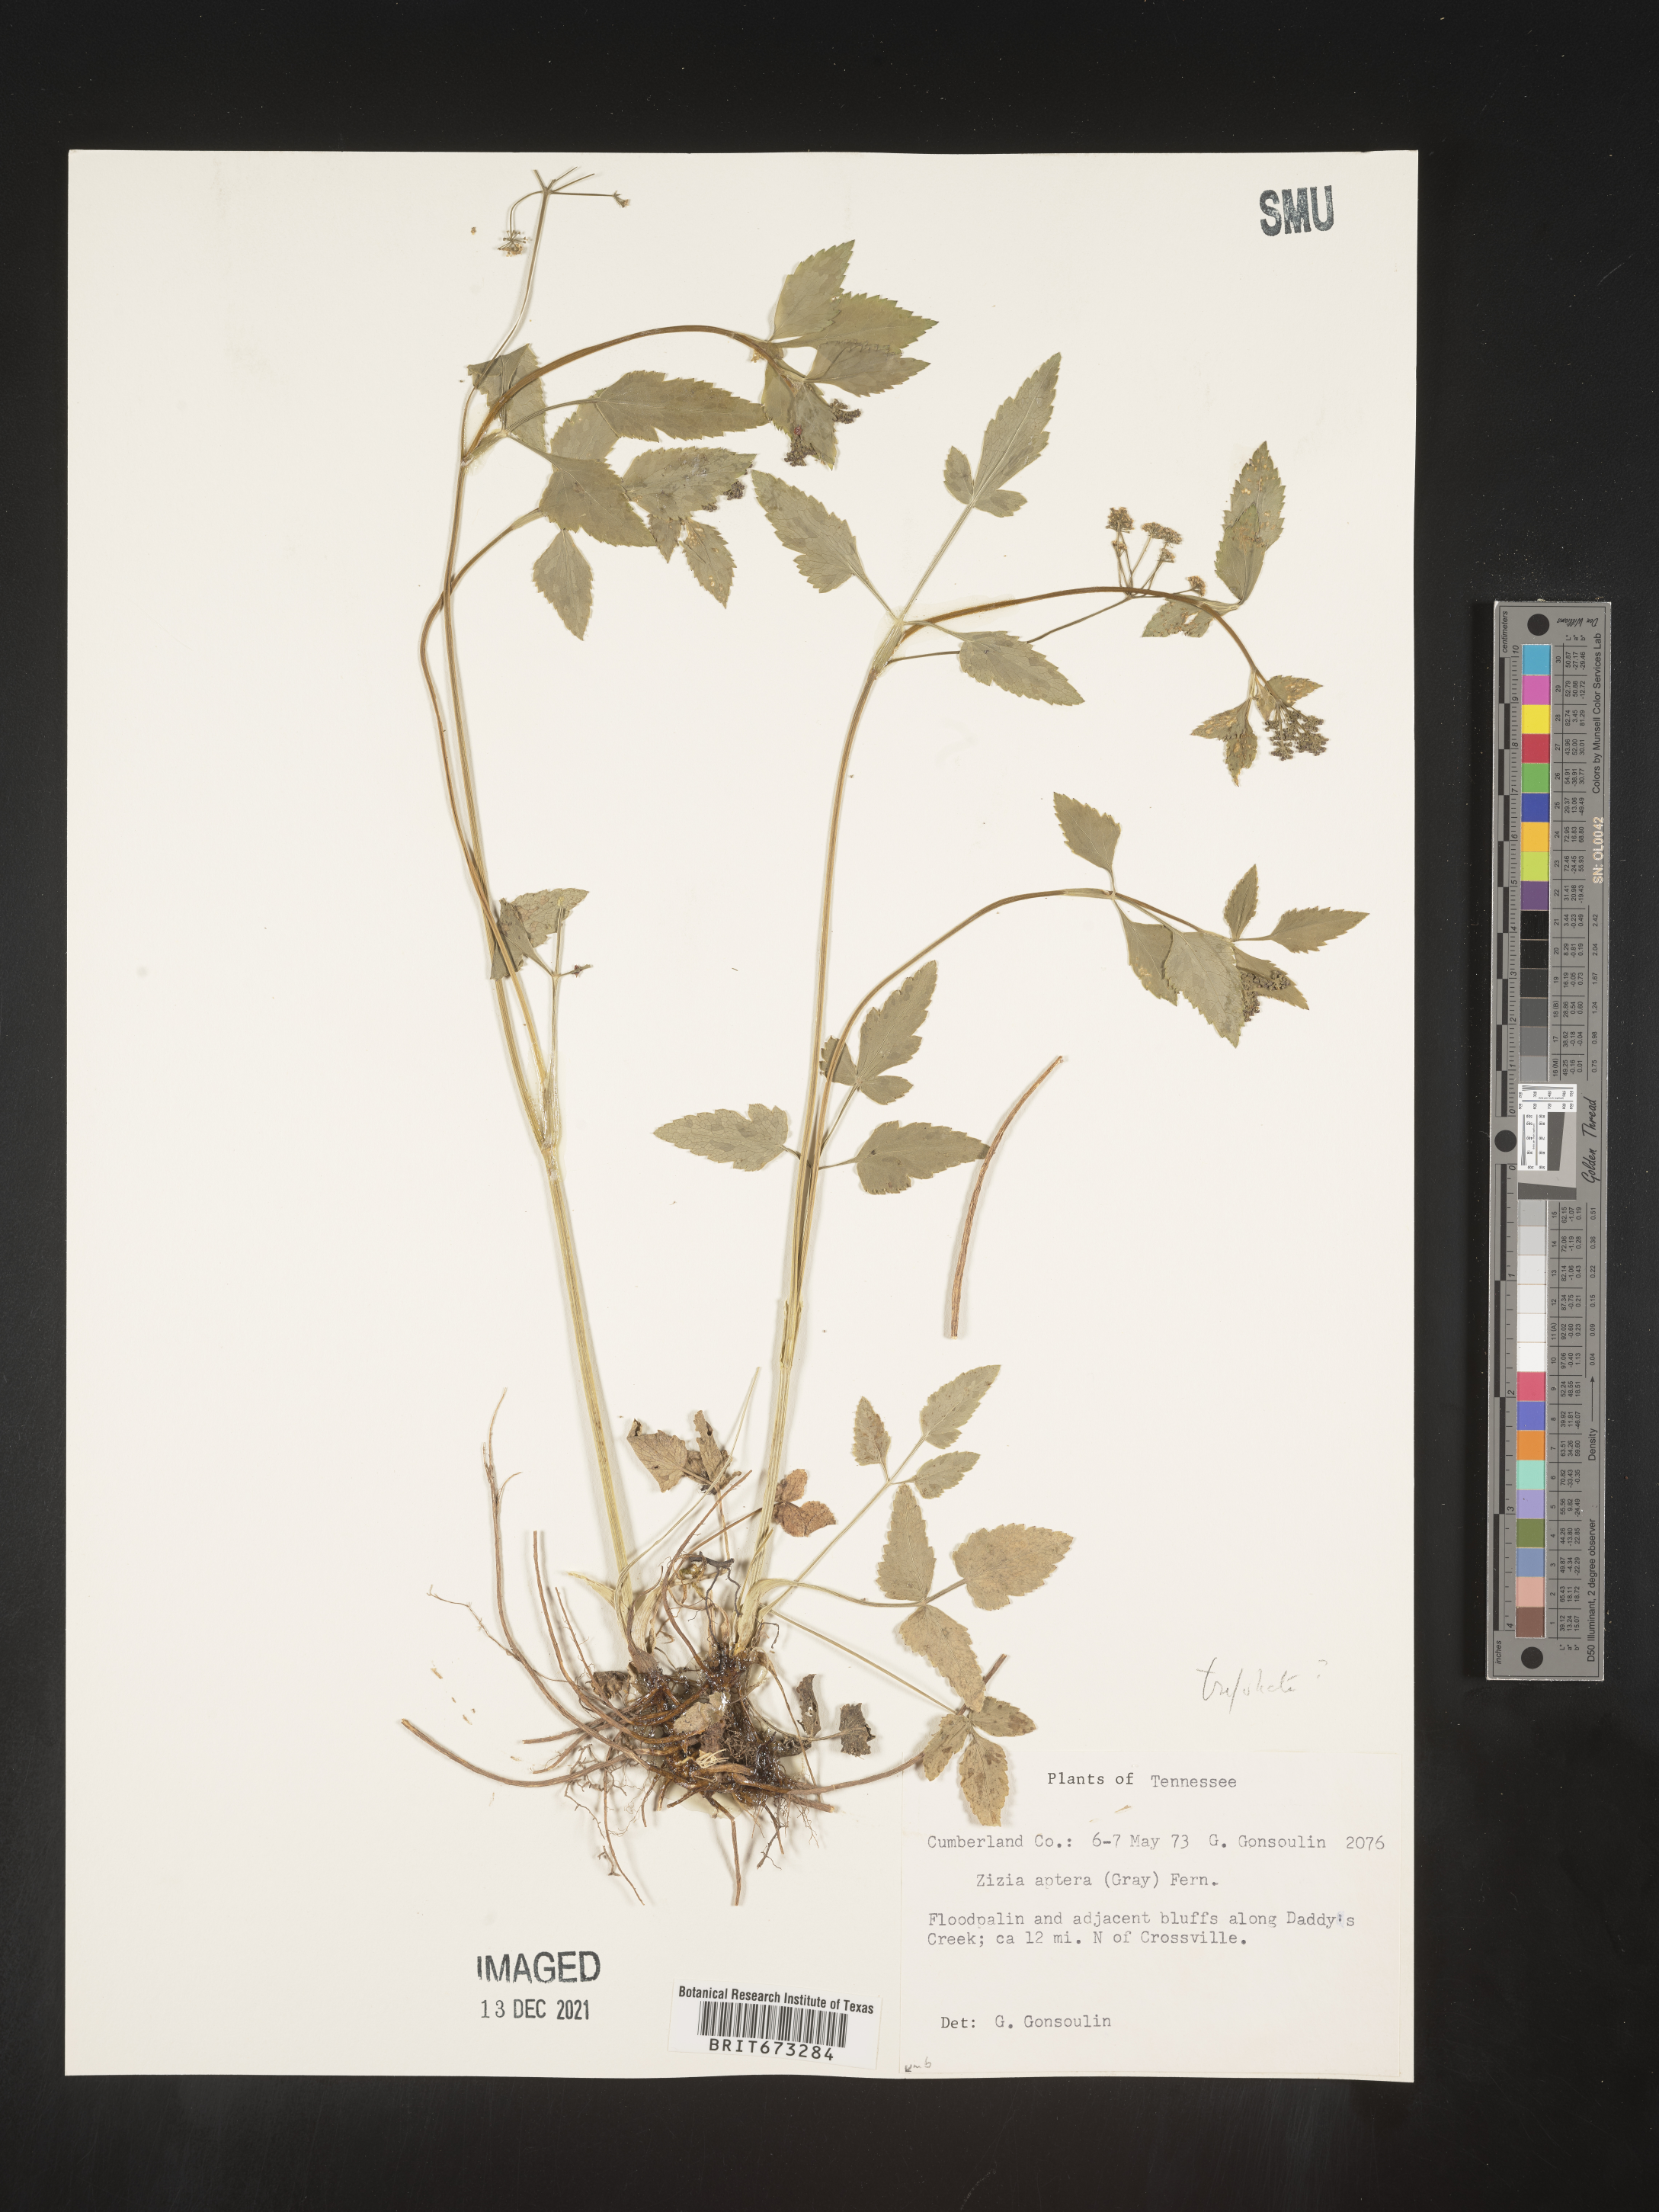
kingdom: Plantae
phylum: Tracheophyta
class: Magnoliopsida
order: Apiales
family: Apiaceae
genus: Zizia
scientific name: Zizia aptera
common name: Heart-leaved alexanders
